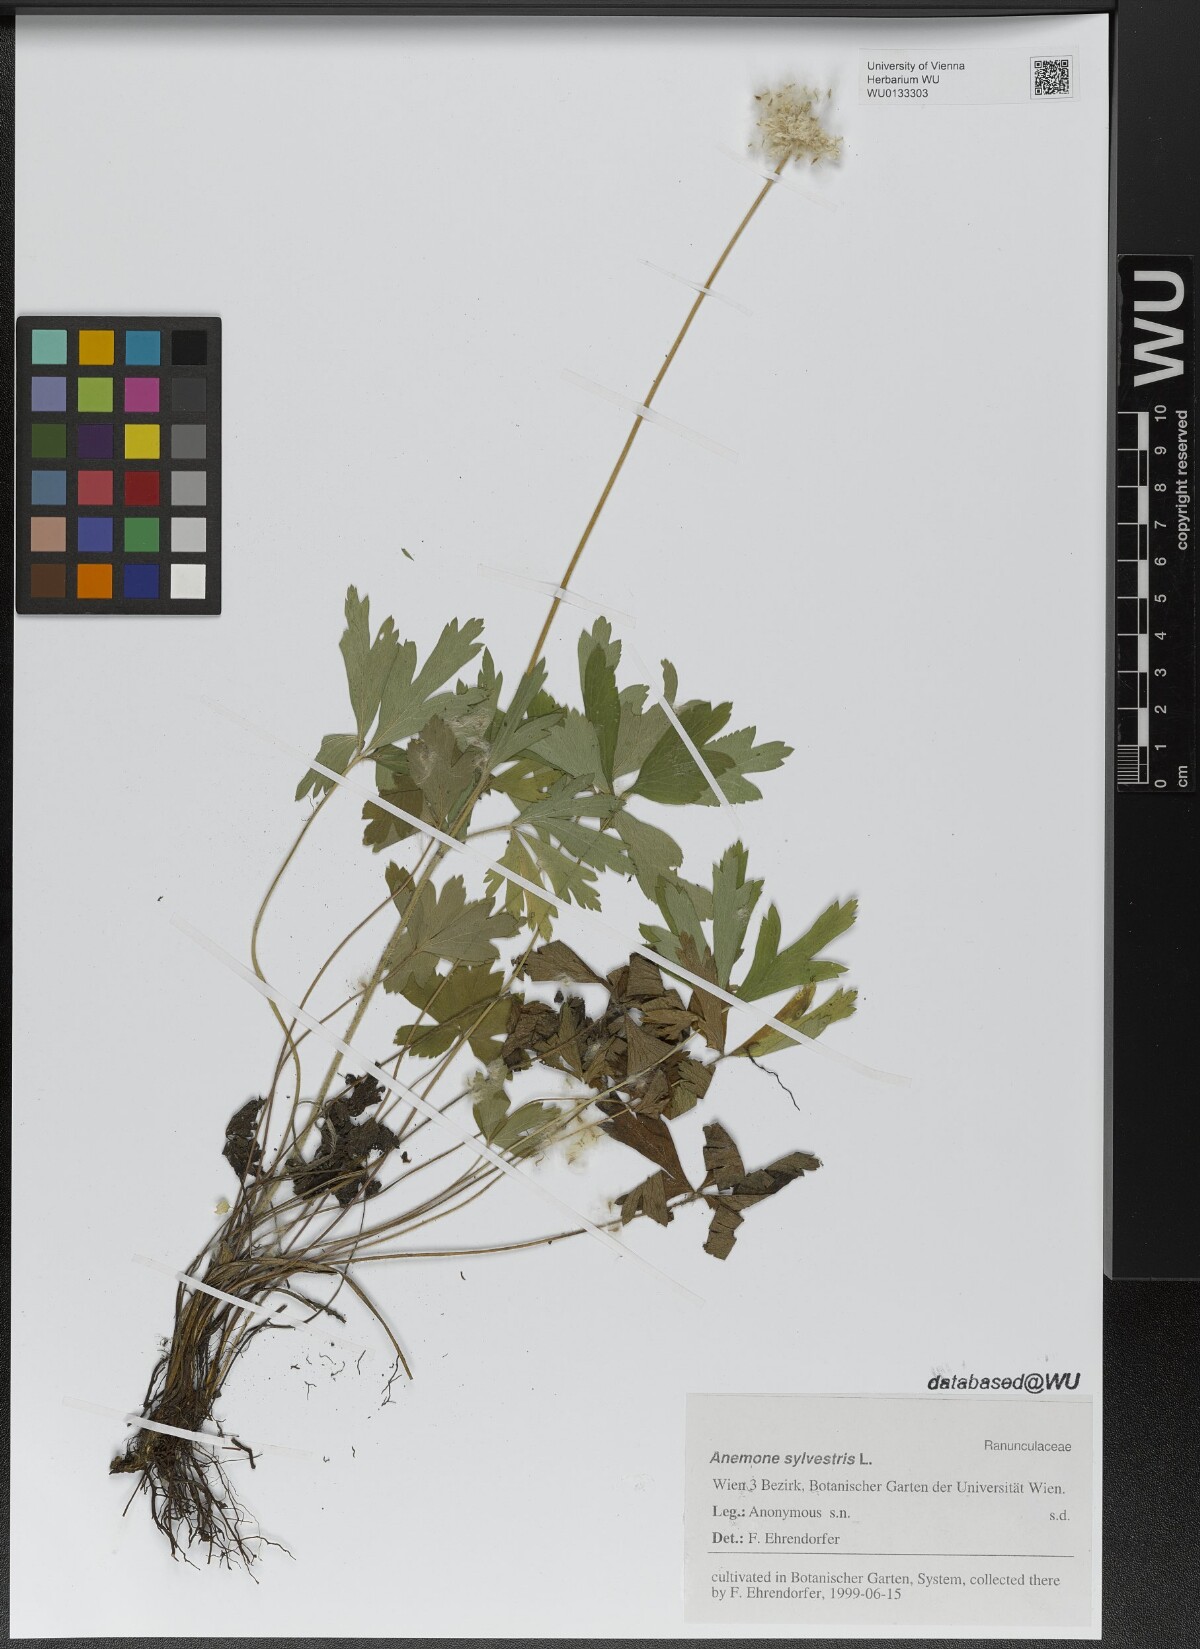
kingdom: Plantae
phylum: Tracheophyta
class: Magnoliopsida
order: Ranunculales
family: Ranunculaceae
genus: Anemone
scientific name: Anemone sylvestris
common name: Snowdrop anemone
